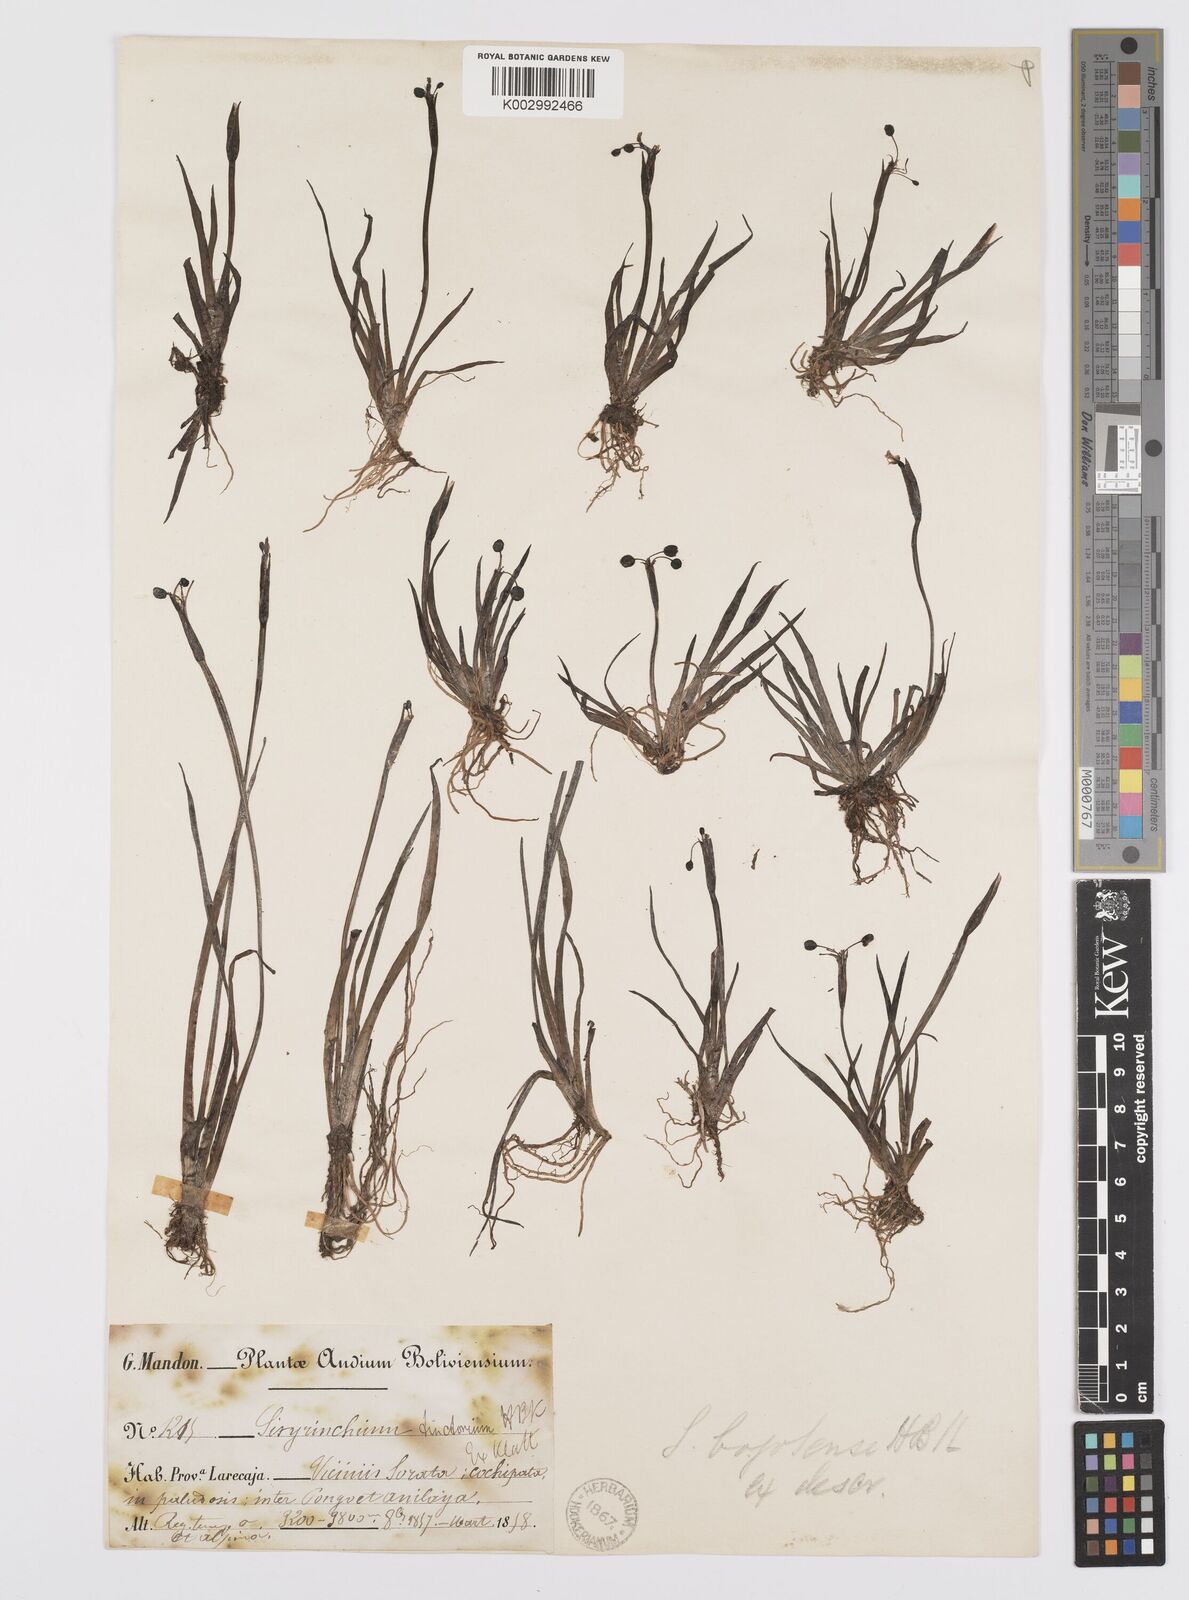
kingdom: Plantae
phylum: Tracheophyta
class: Liliopsida
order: Asparagales
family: Iridaceae
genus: Sisyrinchium
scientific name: Sisyrinchium tinctorium
